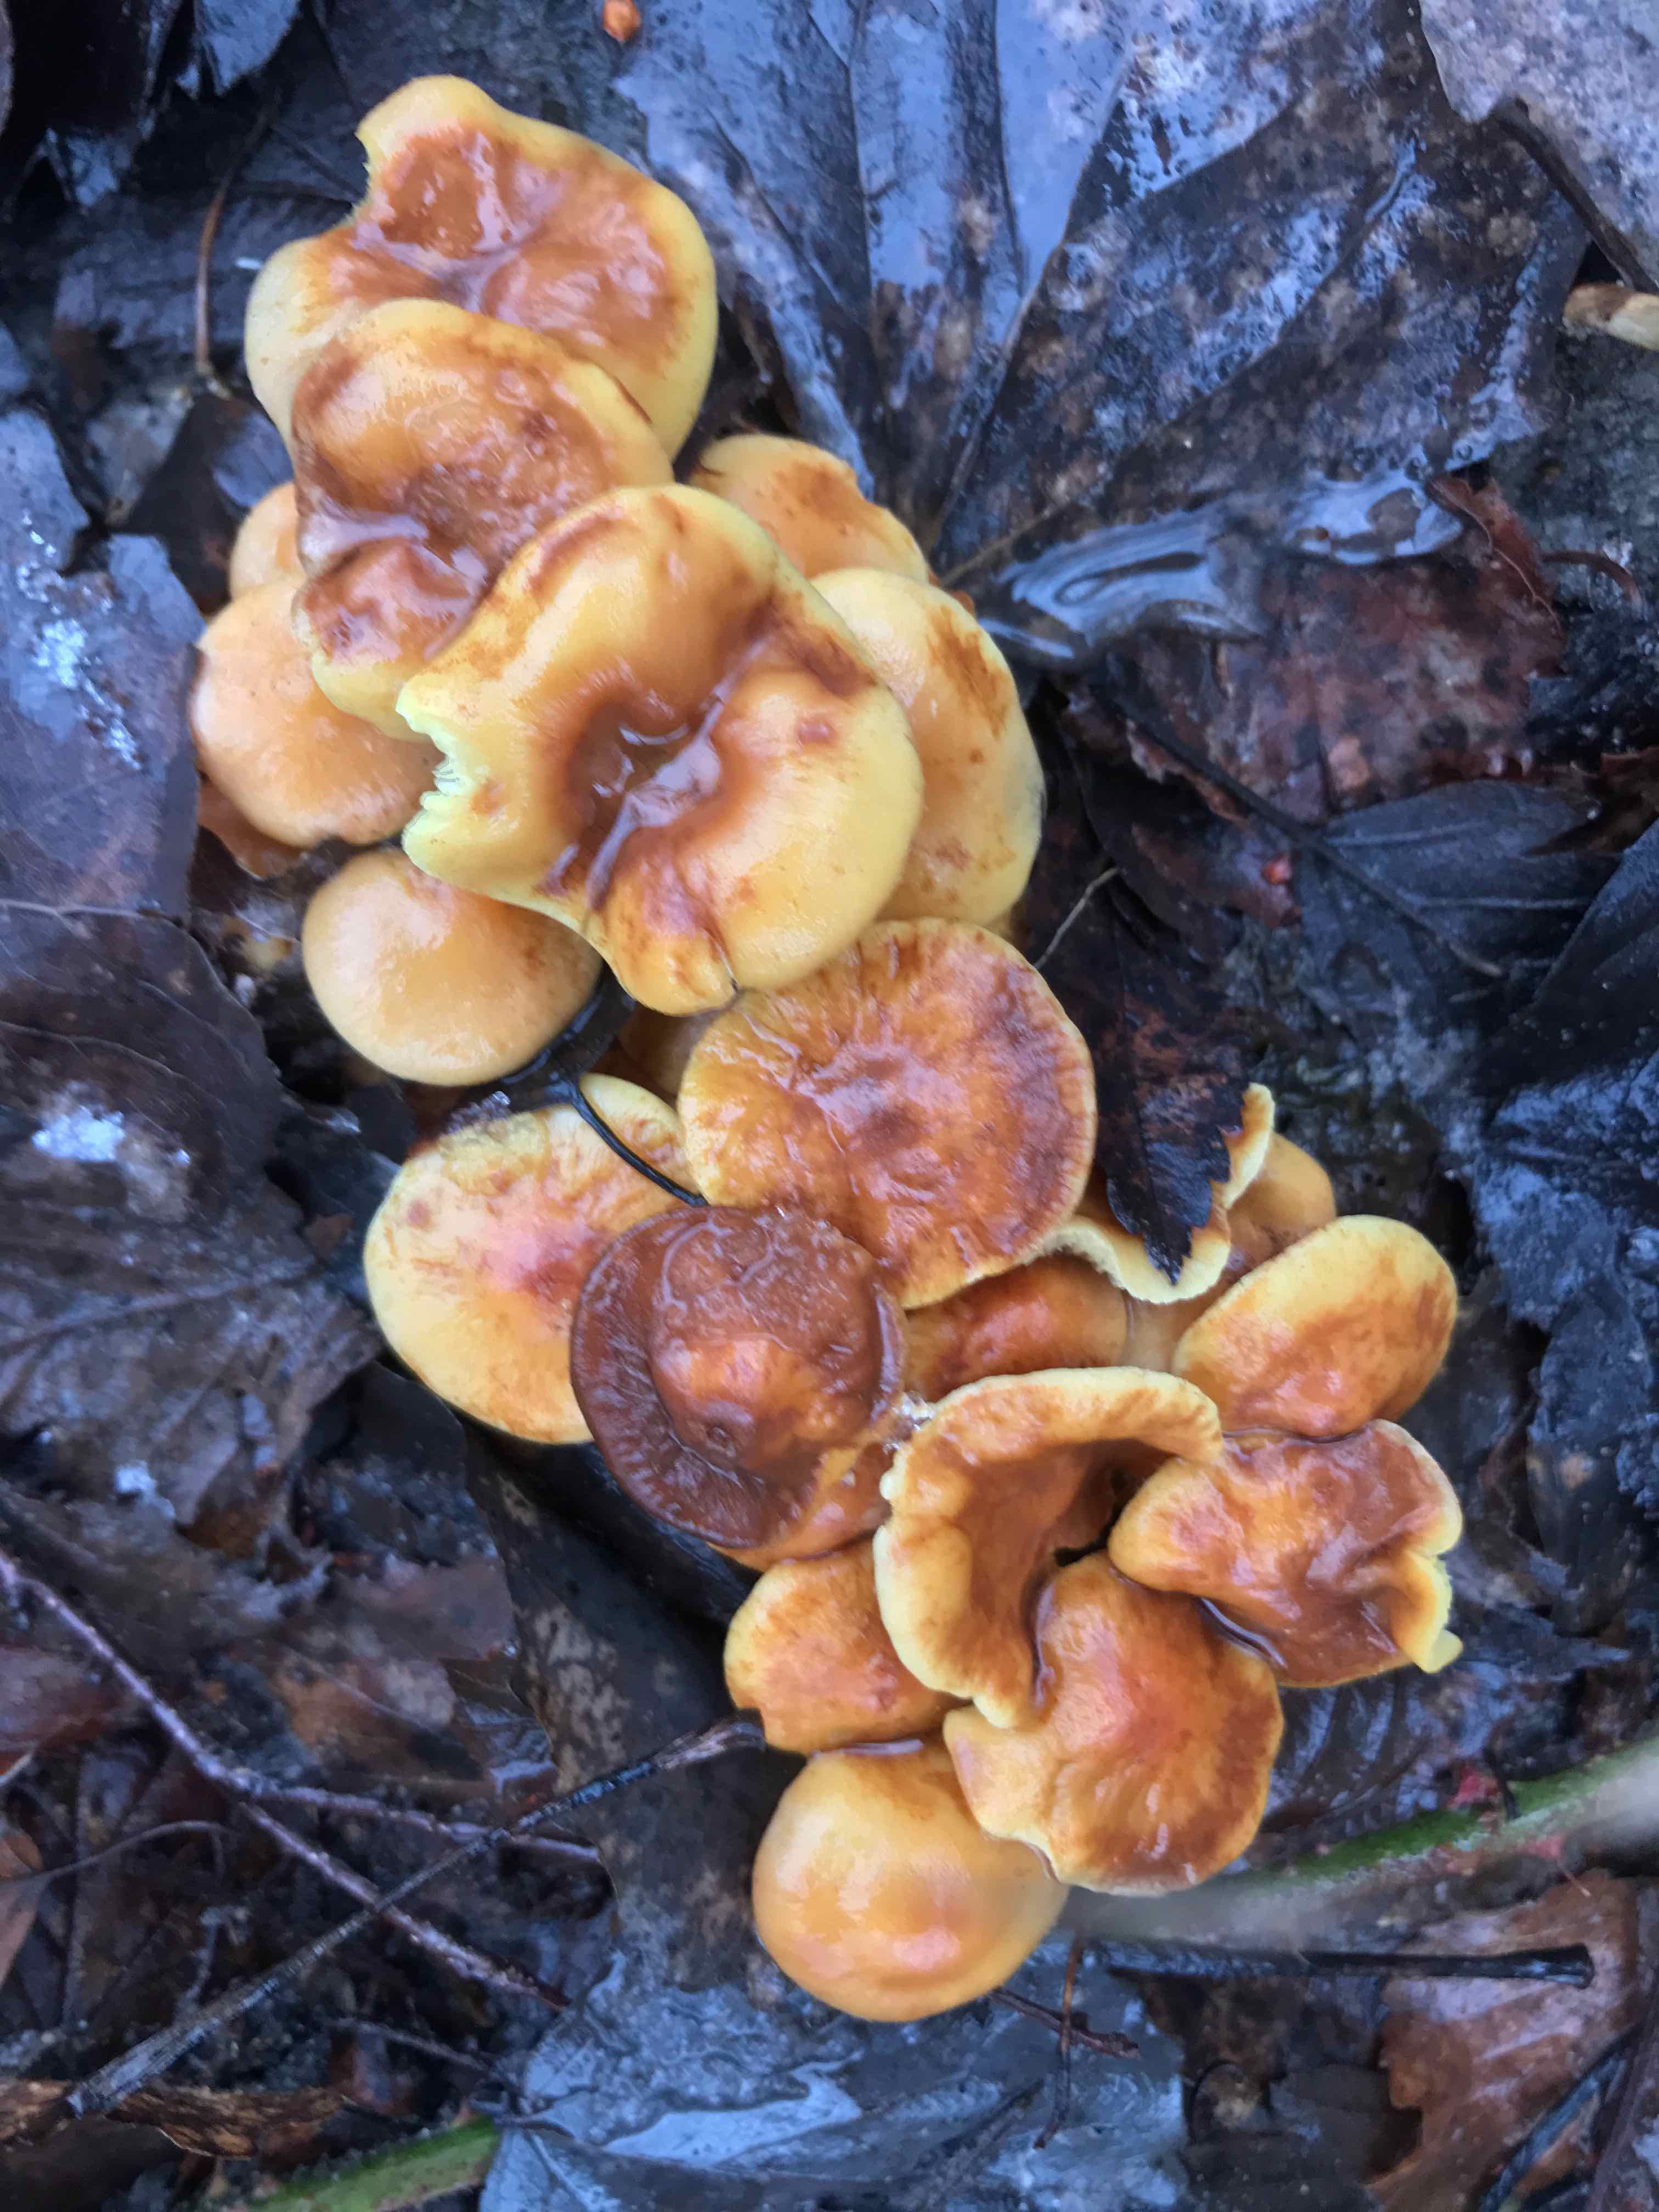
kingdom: Fungi
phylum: Basidiomycota
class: Agaricomycetes
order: Agaricales
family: Strophariaceae
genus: Hypholoma
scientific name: Hypholoma fasciculare
